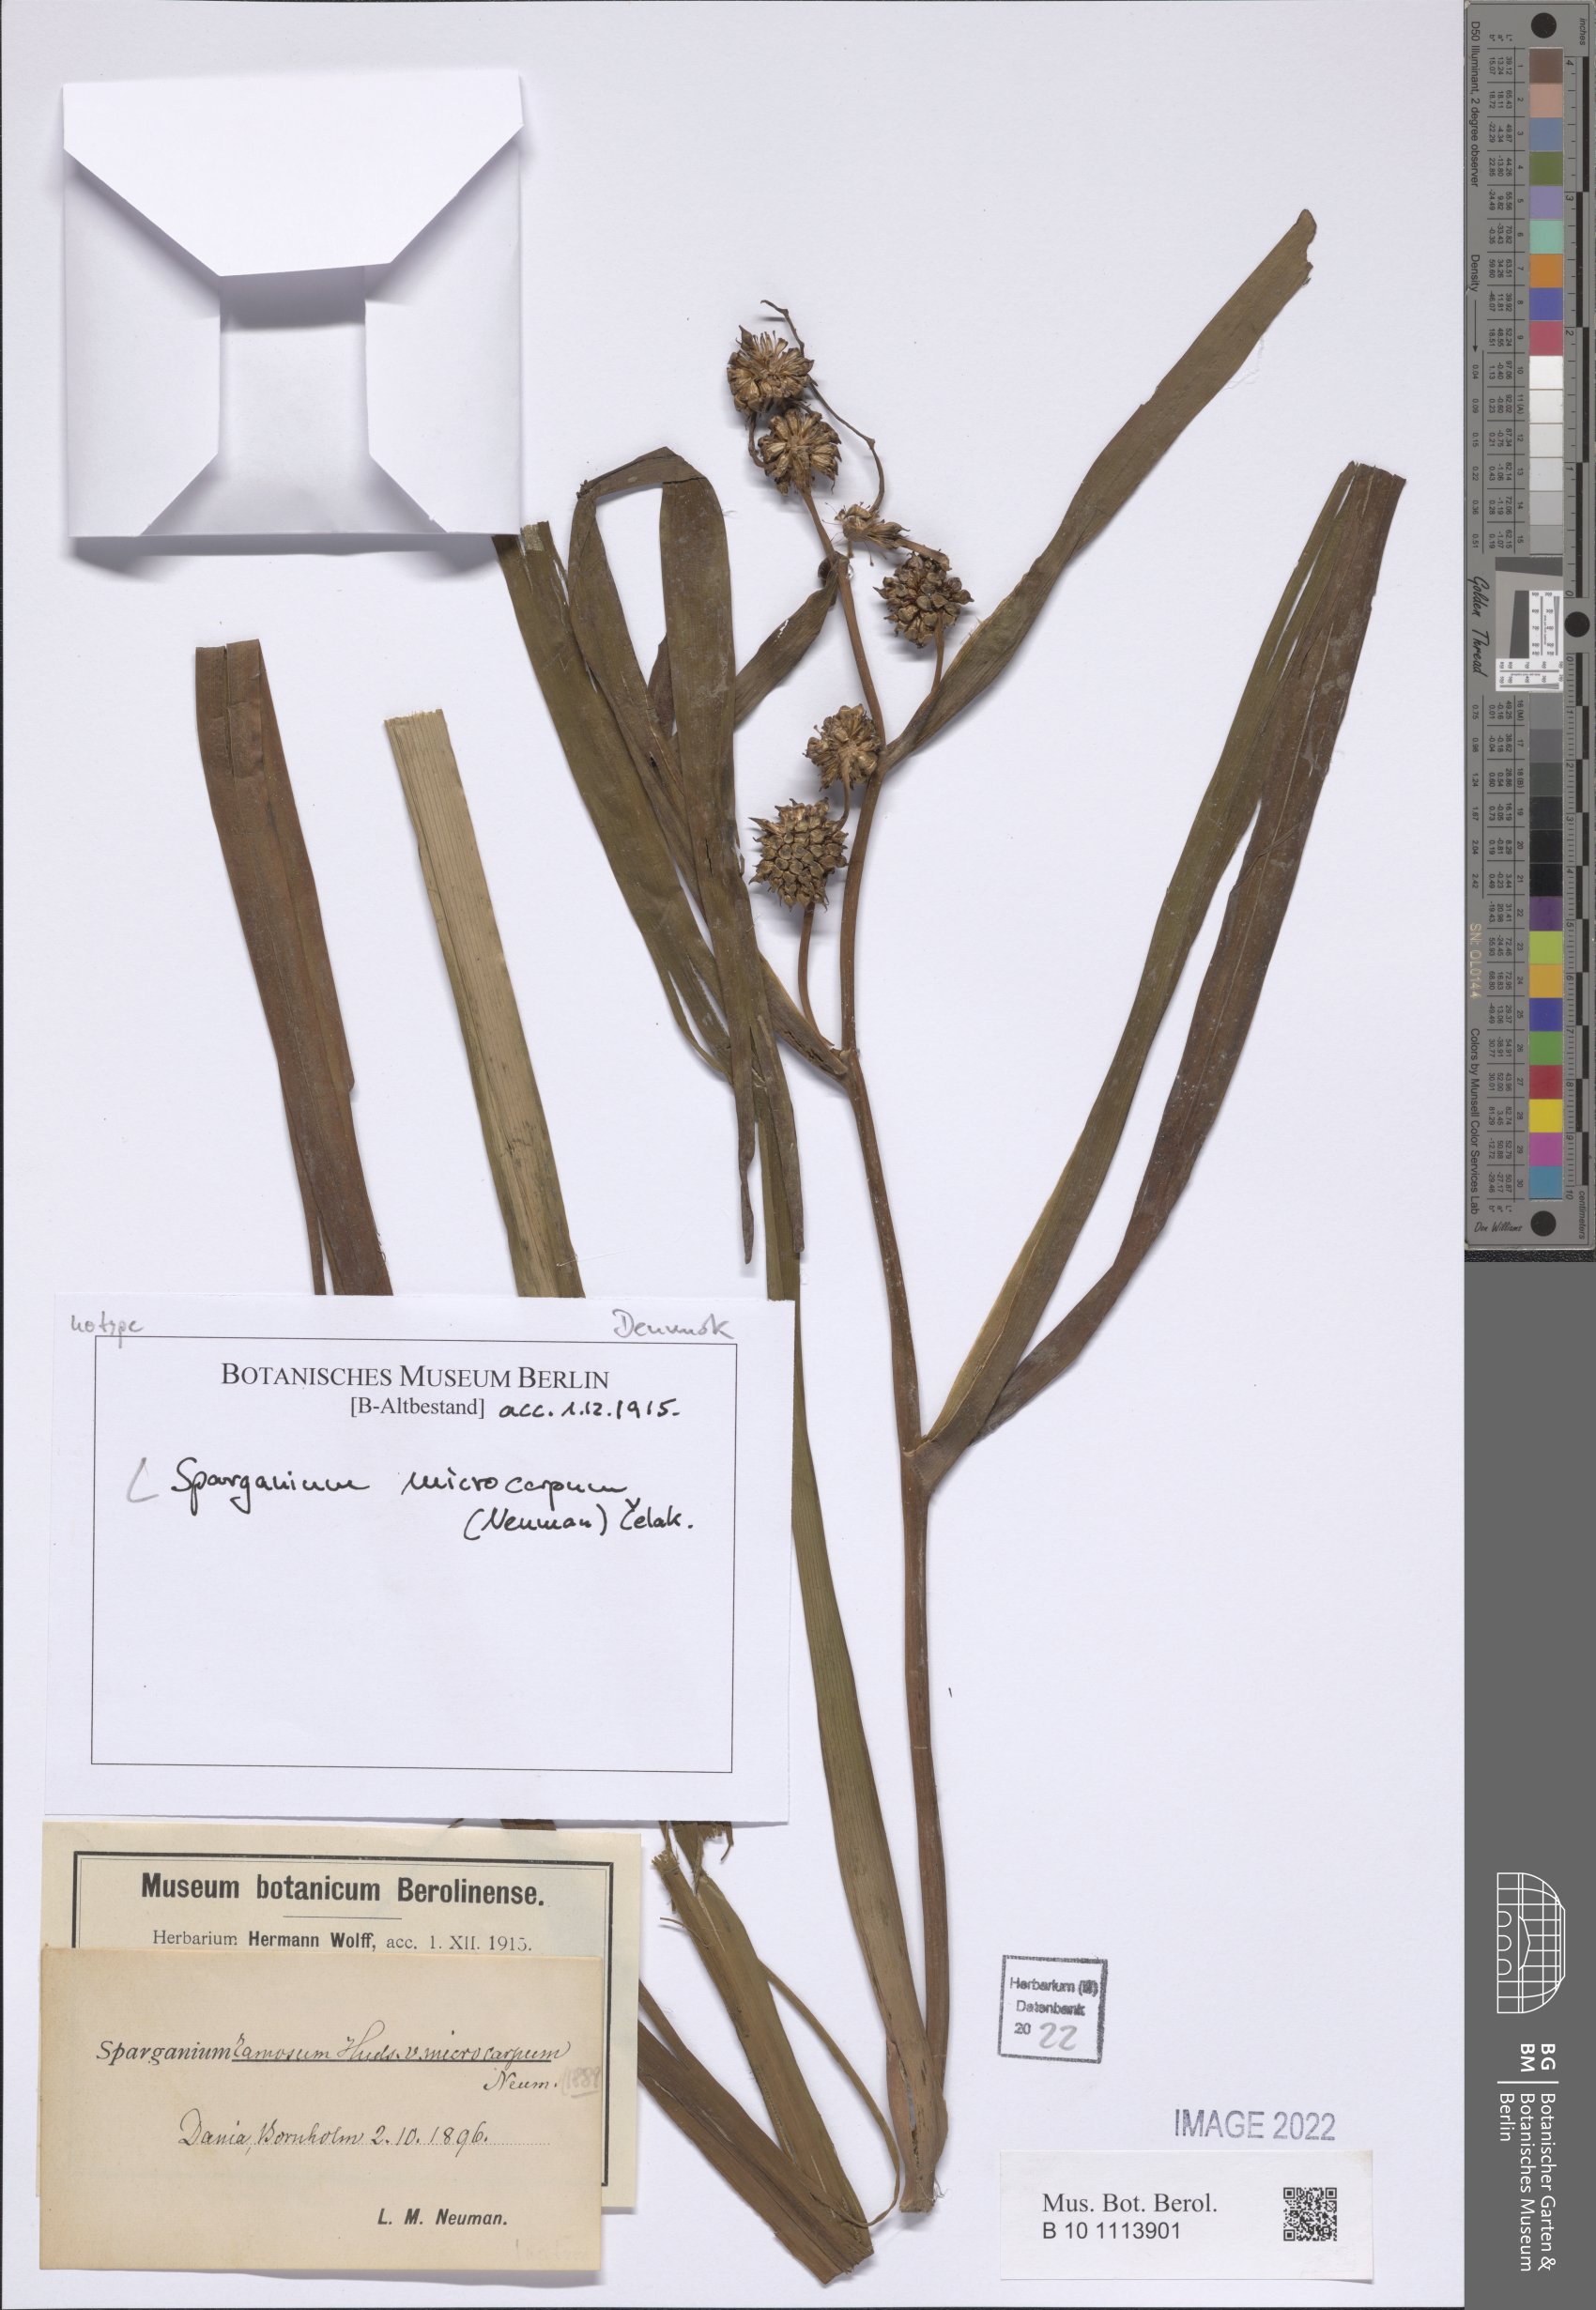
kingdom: Plantae
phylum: Tracheophyta
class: Liliopsida
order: Poales
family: Typhaceae
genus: Sparganium
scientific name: Sparganium erectum
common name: Branched bur-reed
